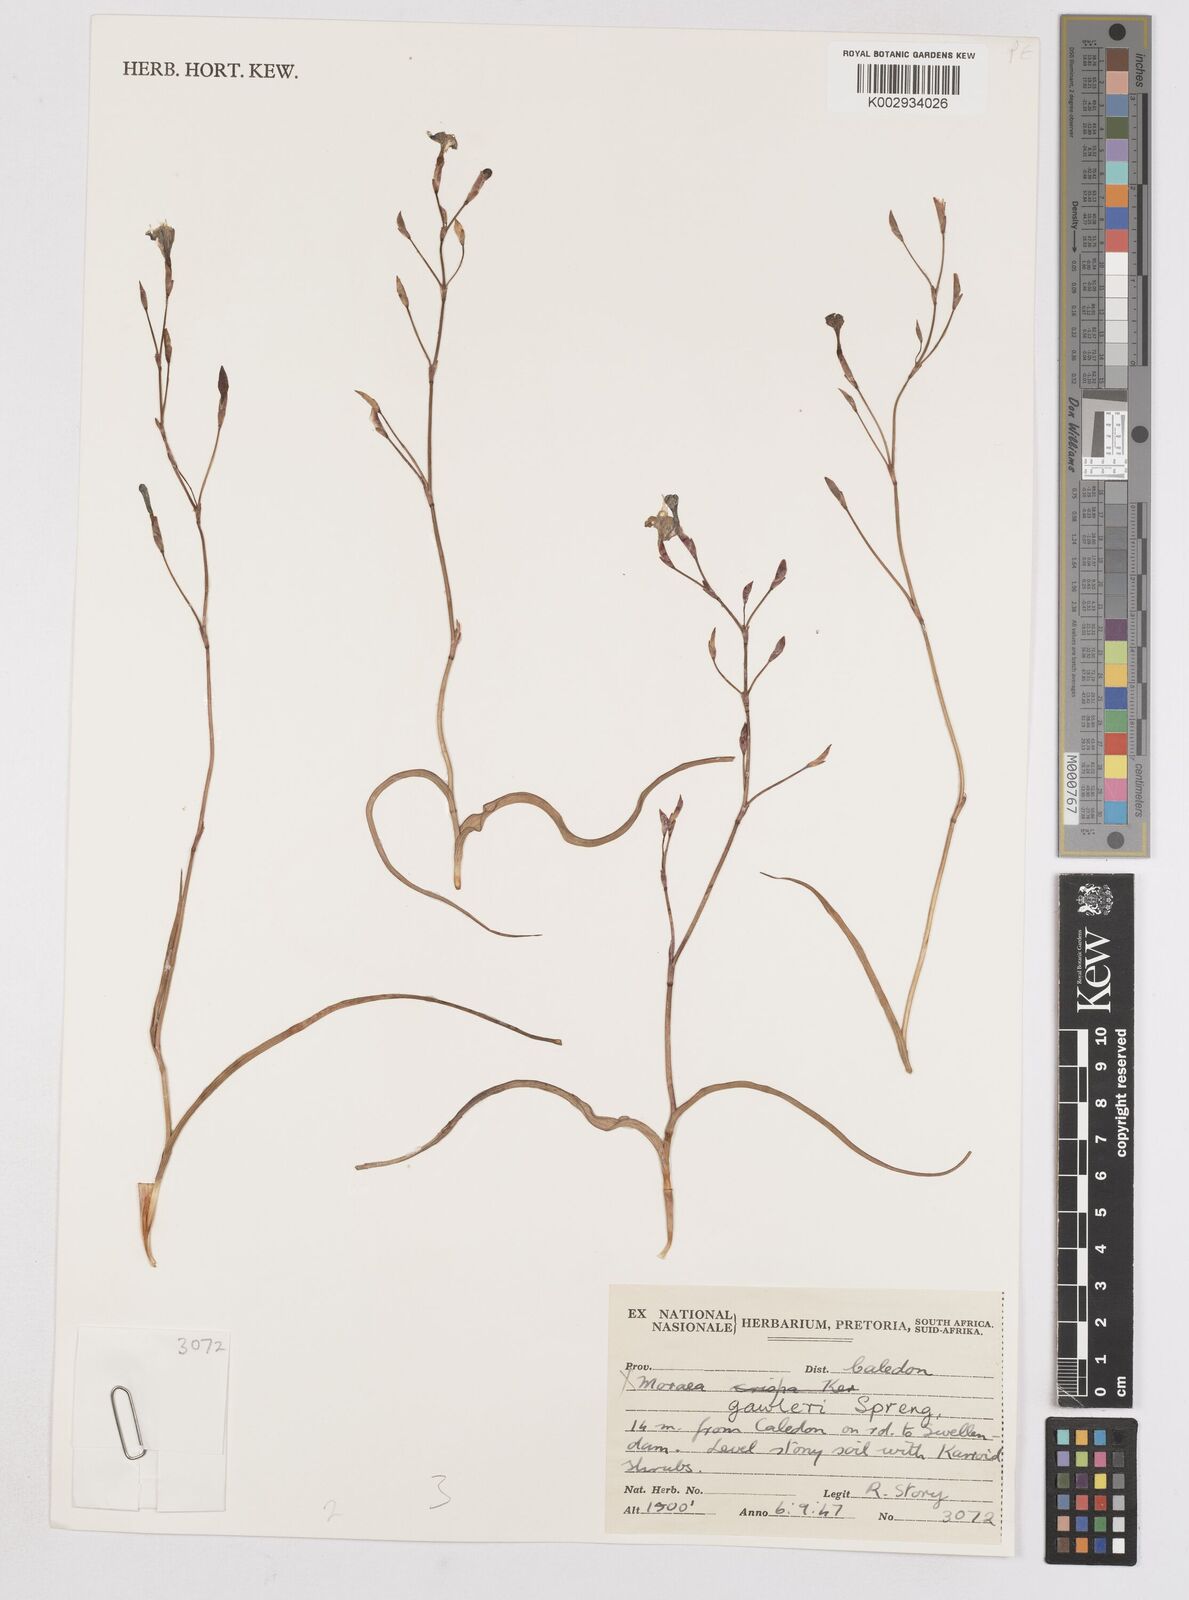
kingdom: Plantae
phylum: Tracheophyta
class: Liliopsida
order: Asparagales
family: Iridaceae
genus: Moraea
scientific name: Moraea gawleri
